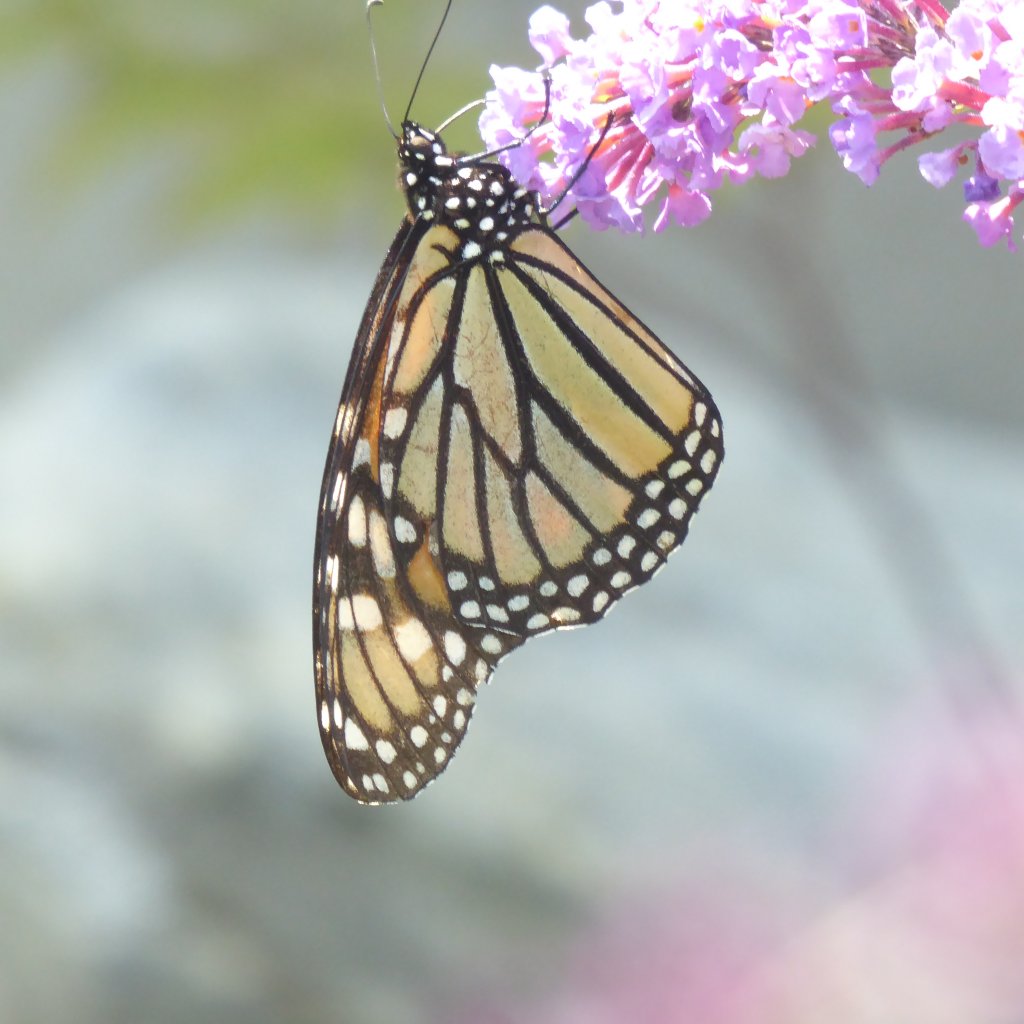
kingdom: Animalia
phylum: Arthropoda
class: Insecta
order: Lepidoptera
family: Nymphalidae
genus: Danaus
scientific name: Danaus plexippus
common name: Monarch
